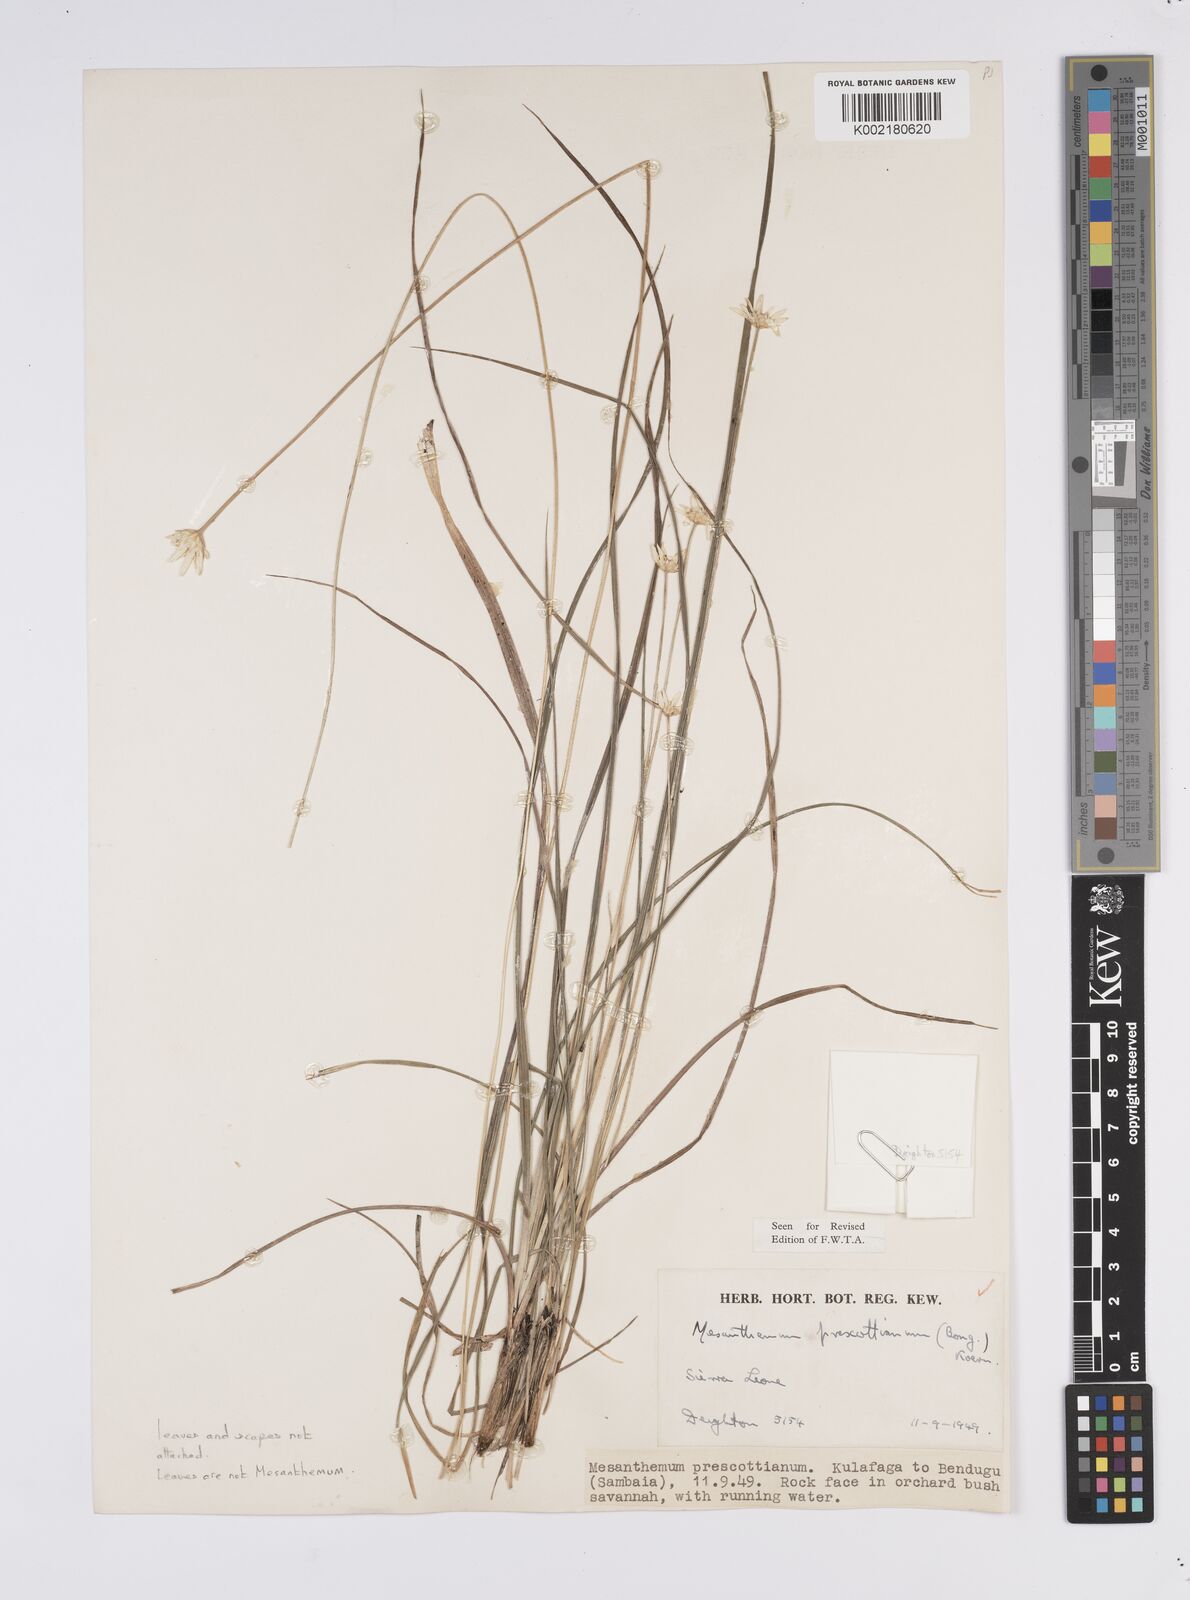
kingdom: Plantae
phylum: Tracheophyta
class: Liliopsida
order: Poales
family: Eriocaulaceae
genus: Mesanthemum
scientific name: Mesanthemum prescottianum
